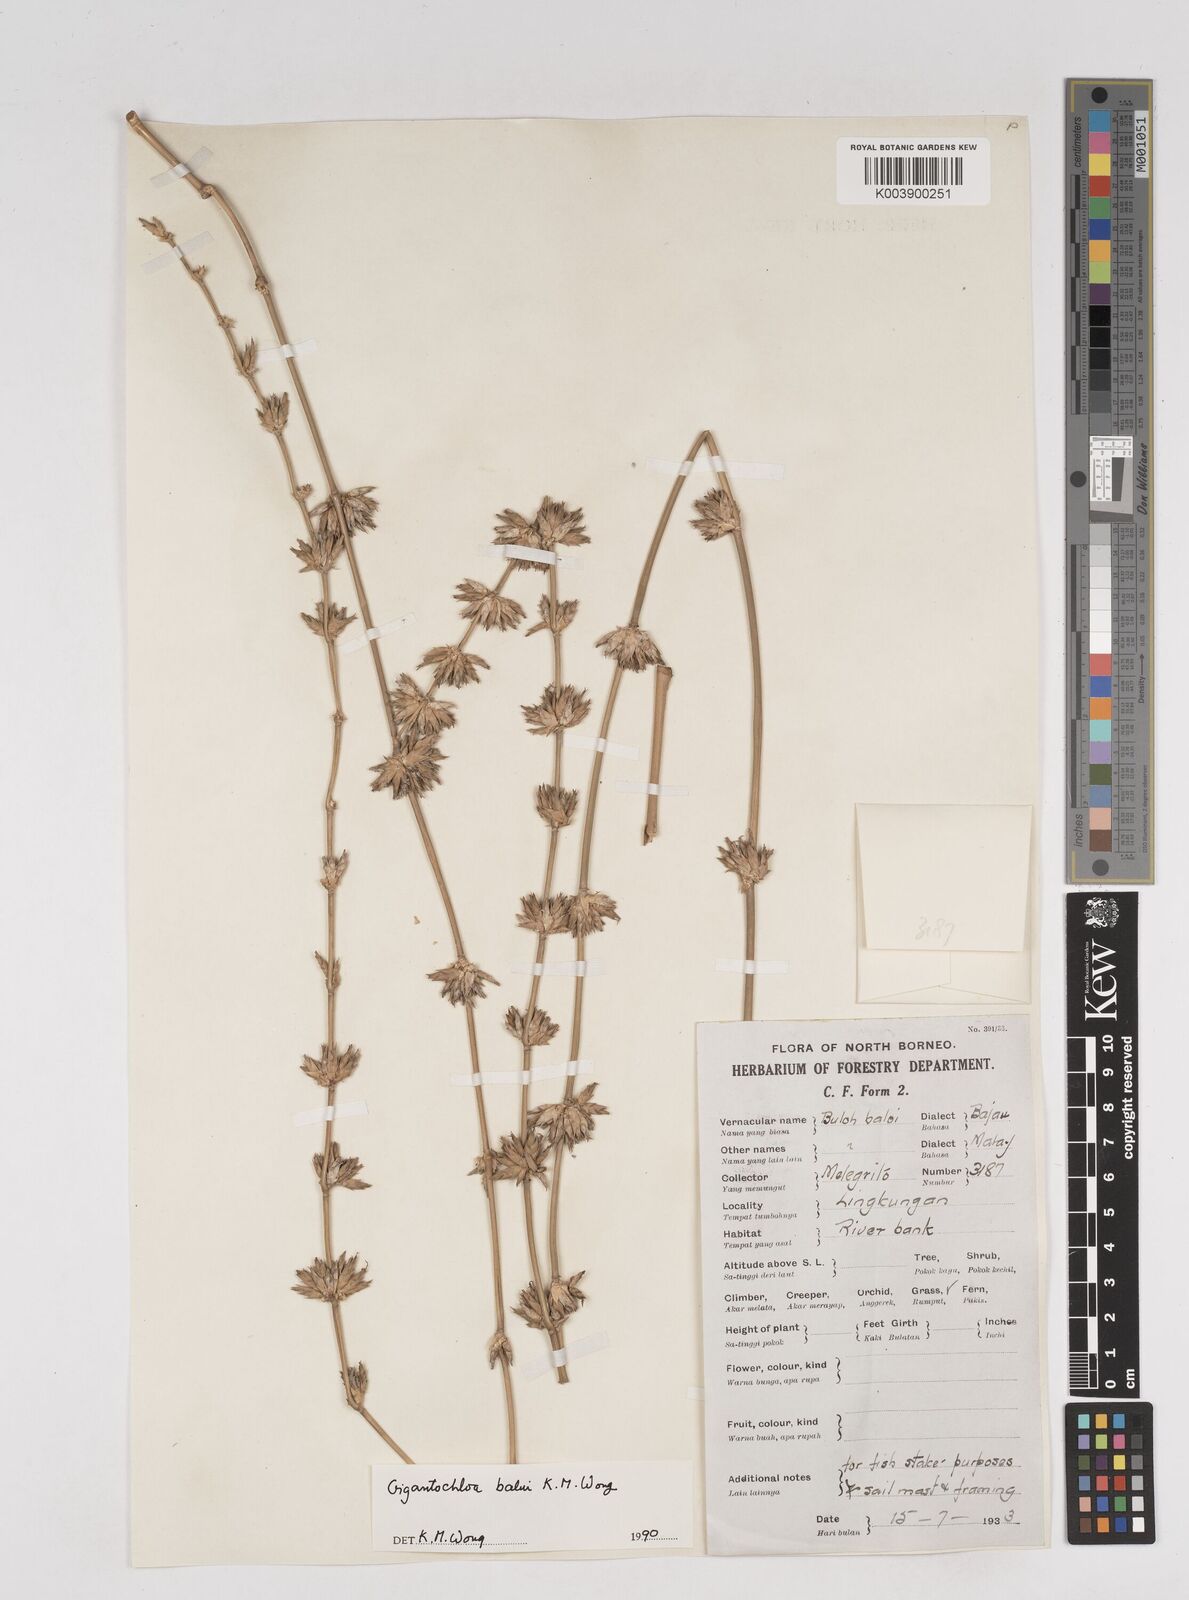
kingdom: Plantae
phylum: Tracheophyta
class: Liliopsida
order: Poales
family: Poaceae
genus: Gigantochloa
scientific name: Gigantochloa
